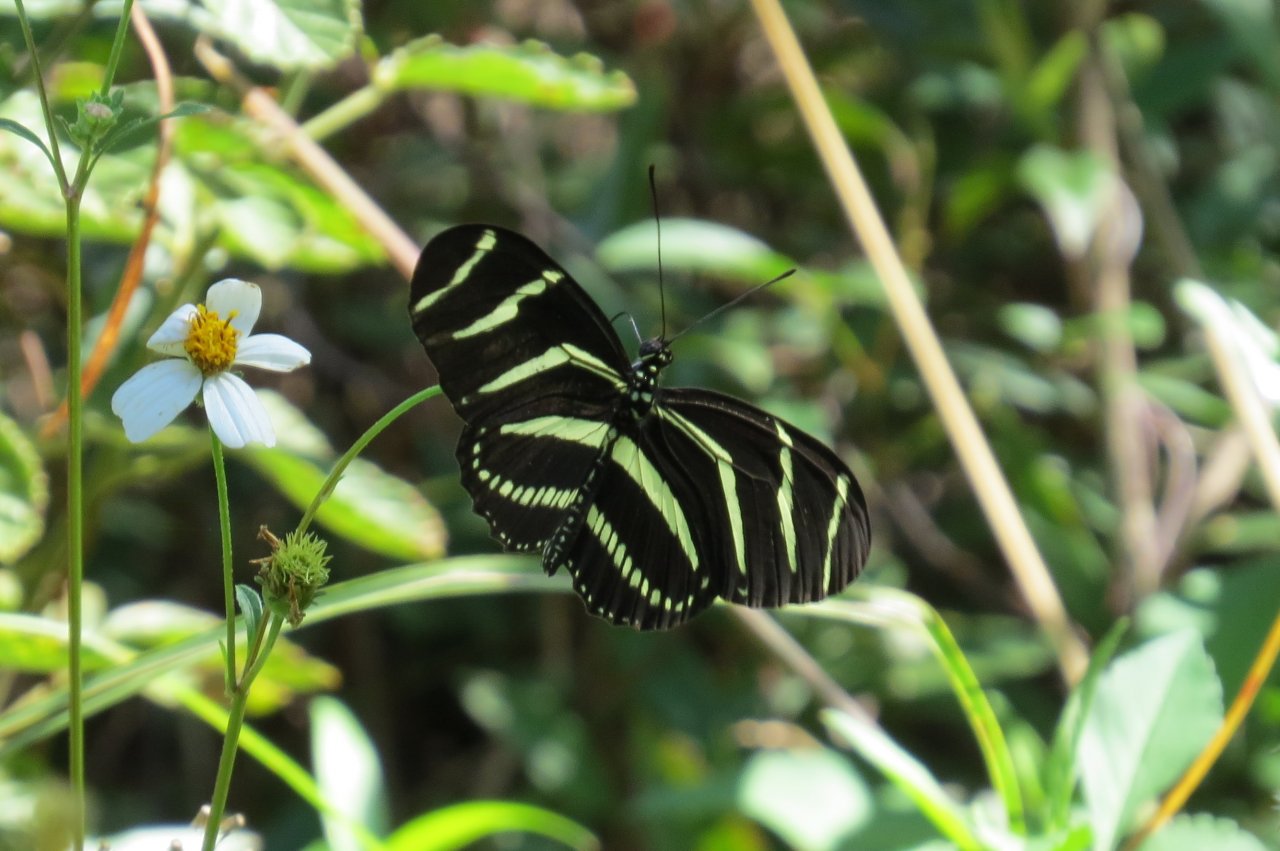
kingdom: Animalia
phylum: Arthropoda
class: Insecta
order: Lepidoptera
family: Nymphalidae
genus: Heliconius
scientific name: Heliconius charithonia
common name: Zebra Longwing
